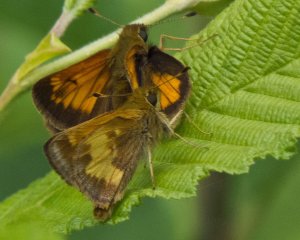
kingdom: Animalia
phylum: Arthropoda
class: Insecta
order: Lepidoptera
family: Hesperiidae
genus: Lon
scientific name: Lon hobomok
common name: Hobomok Skipper
